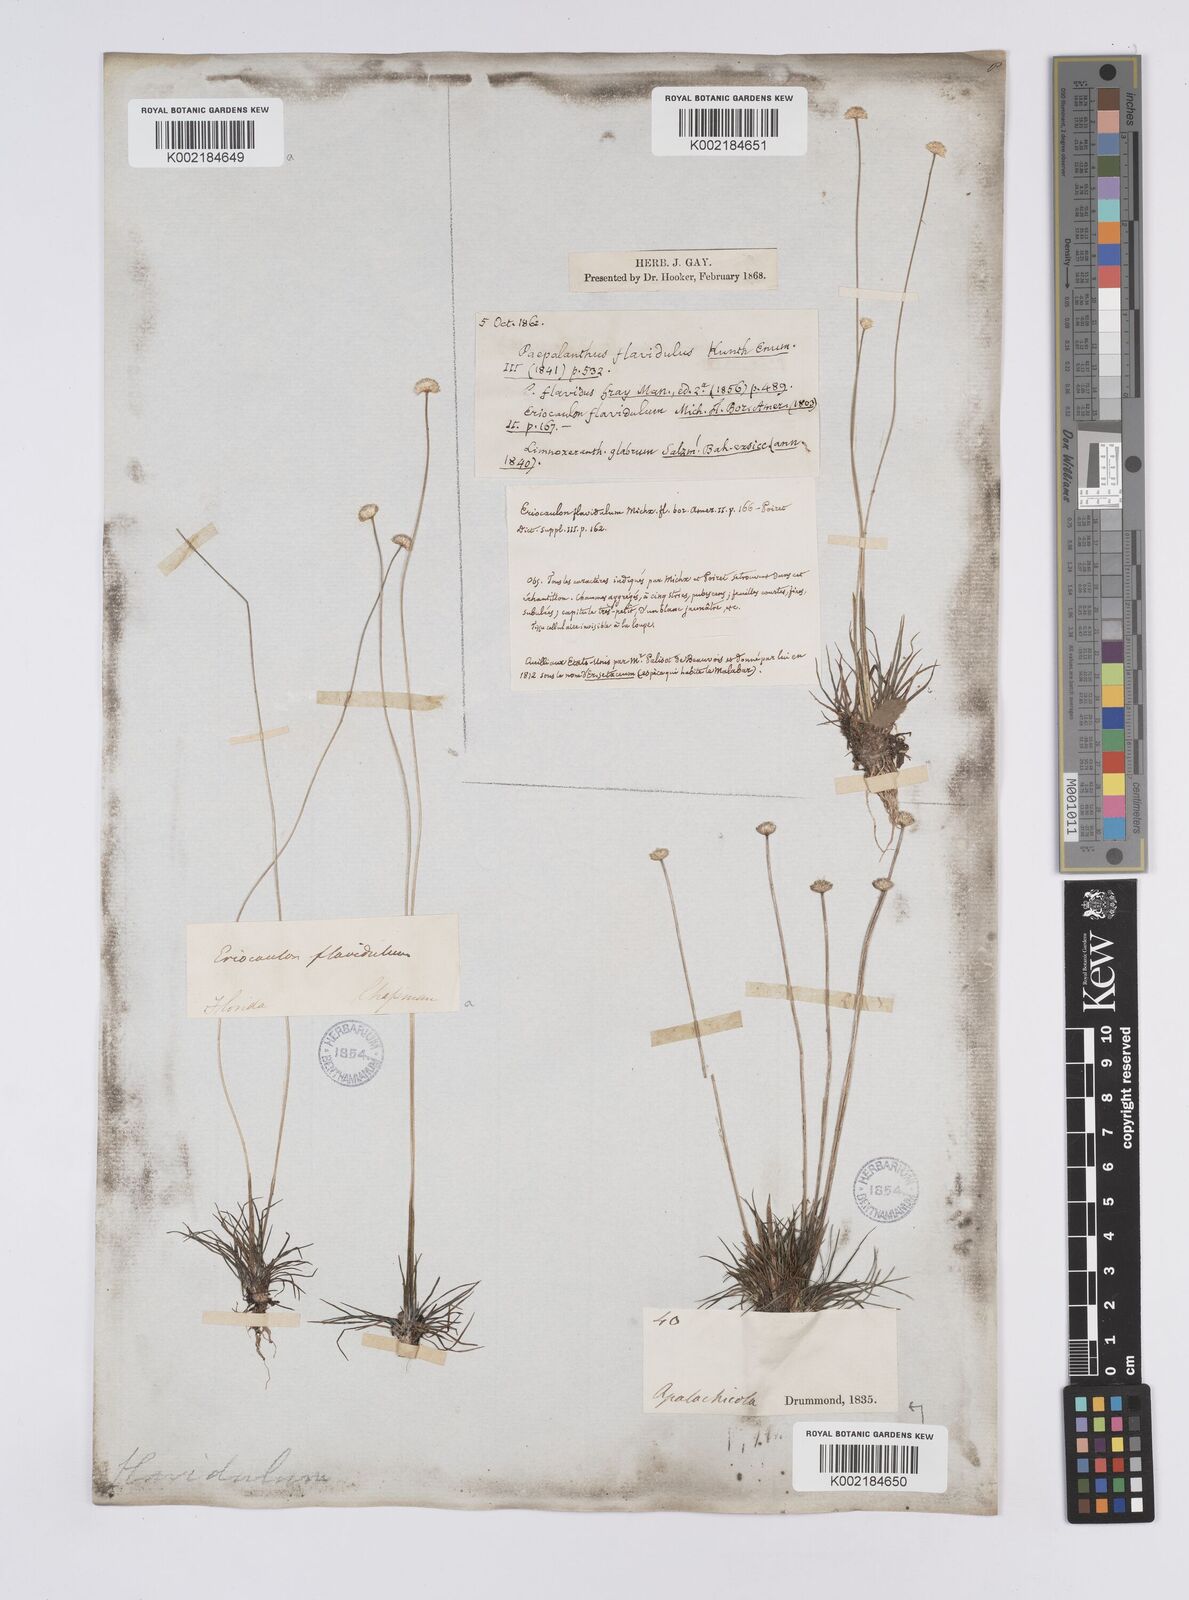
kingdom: Plantae
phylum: Tracheophyta
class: Liliopsida
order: Poales
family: Eriocaulaceae
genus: Syngonanthus
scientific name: Syngonanthus flavidulus
